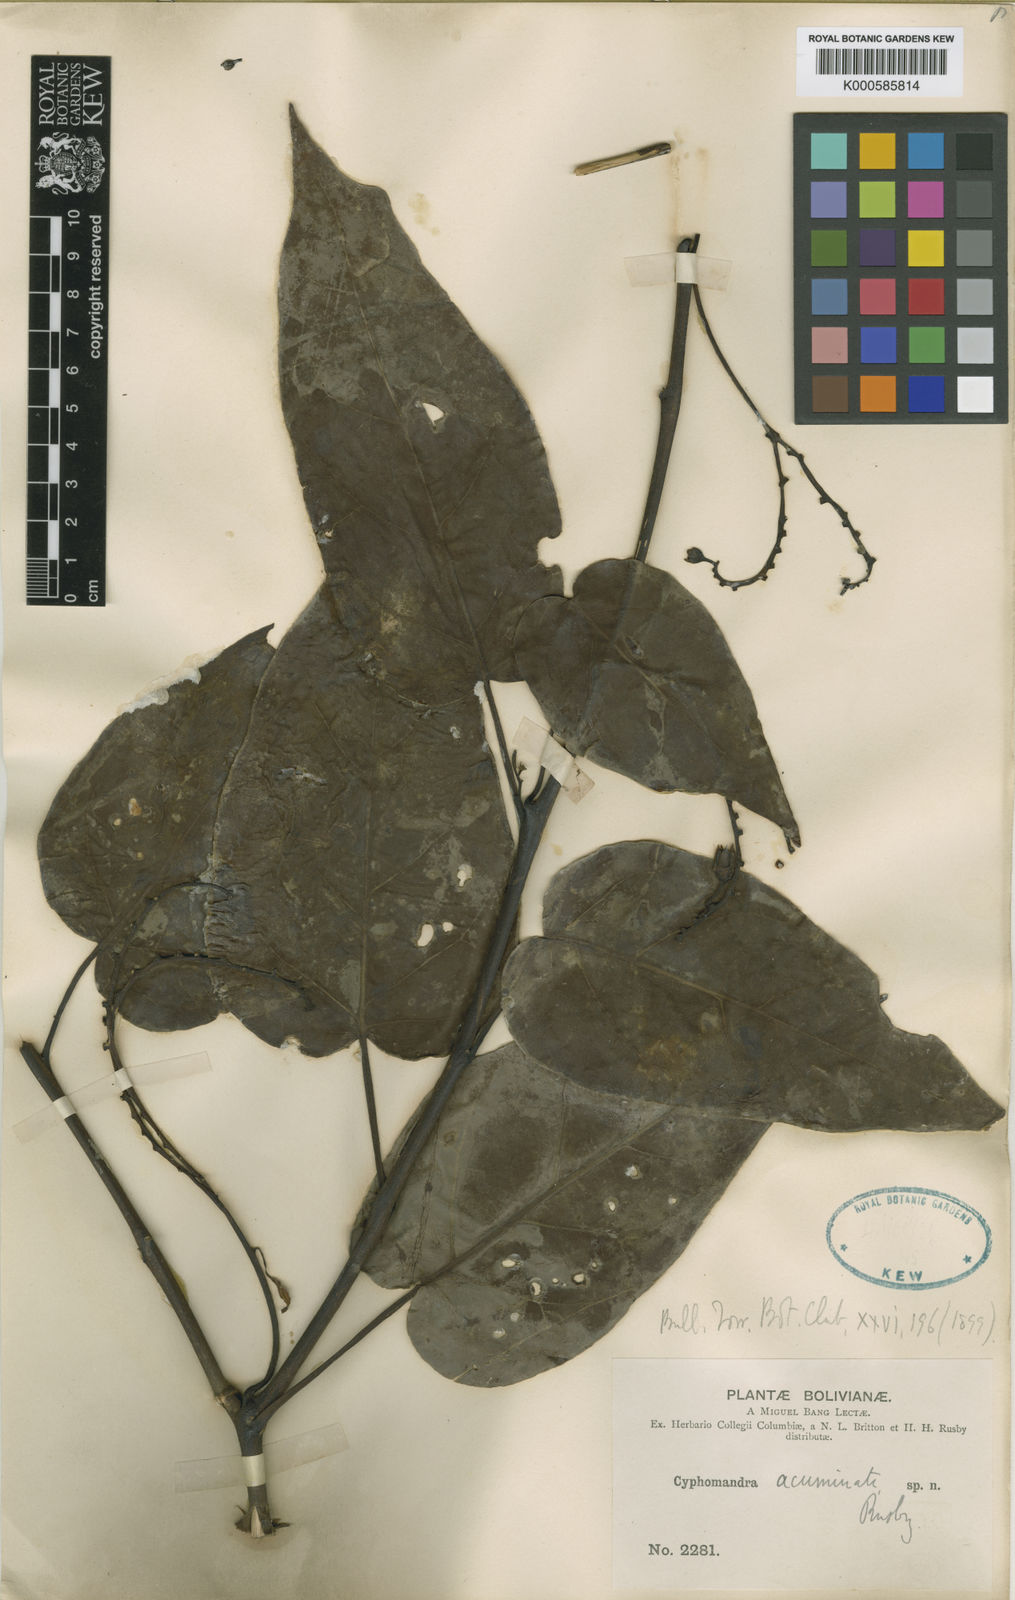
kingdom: Plantae
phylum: Tracheophyta
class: Magnoliopsida
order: Solanales
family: Solanaceae
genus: Solanum
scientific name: Solanum roseum
